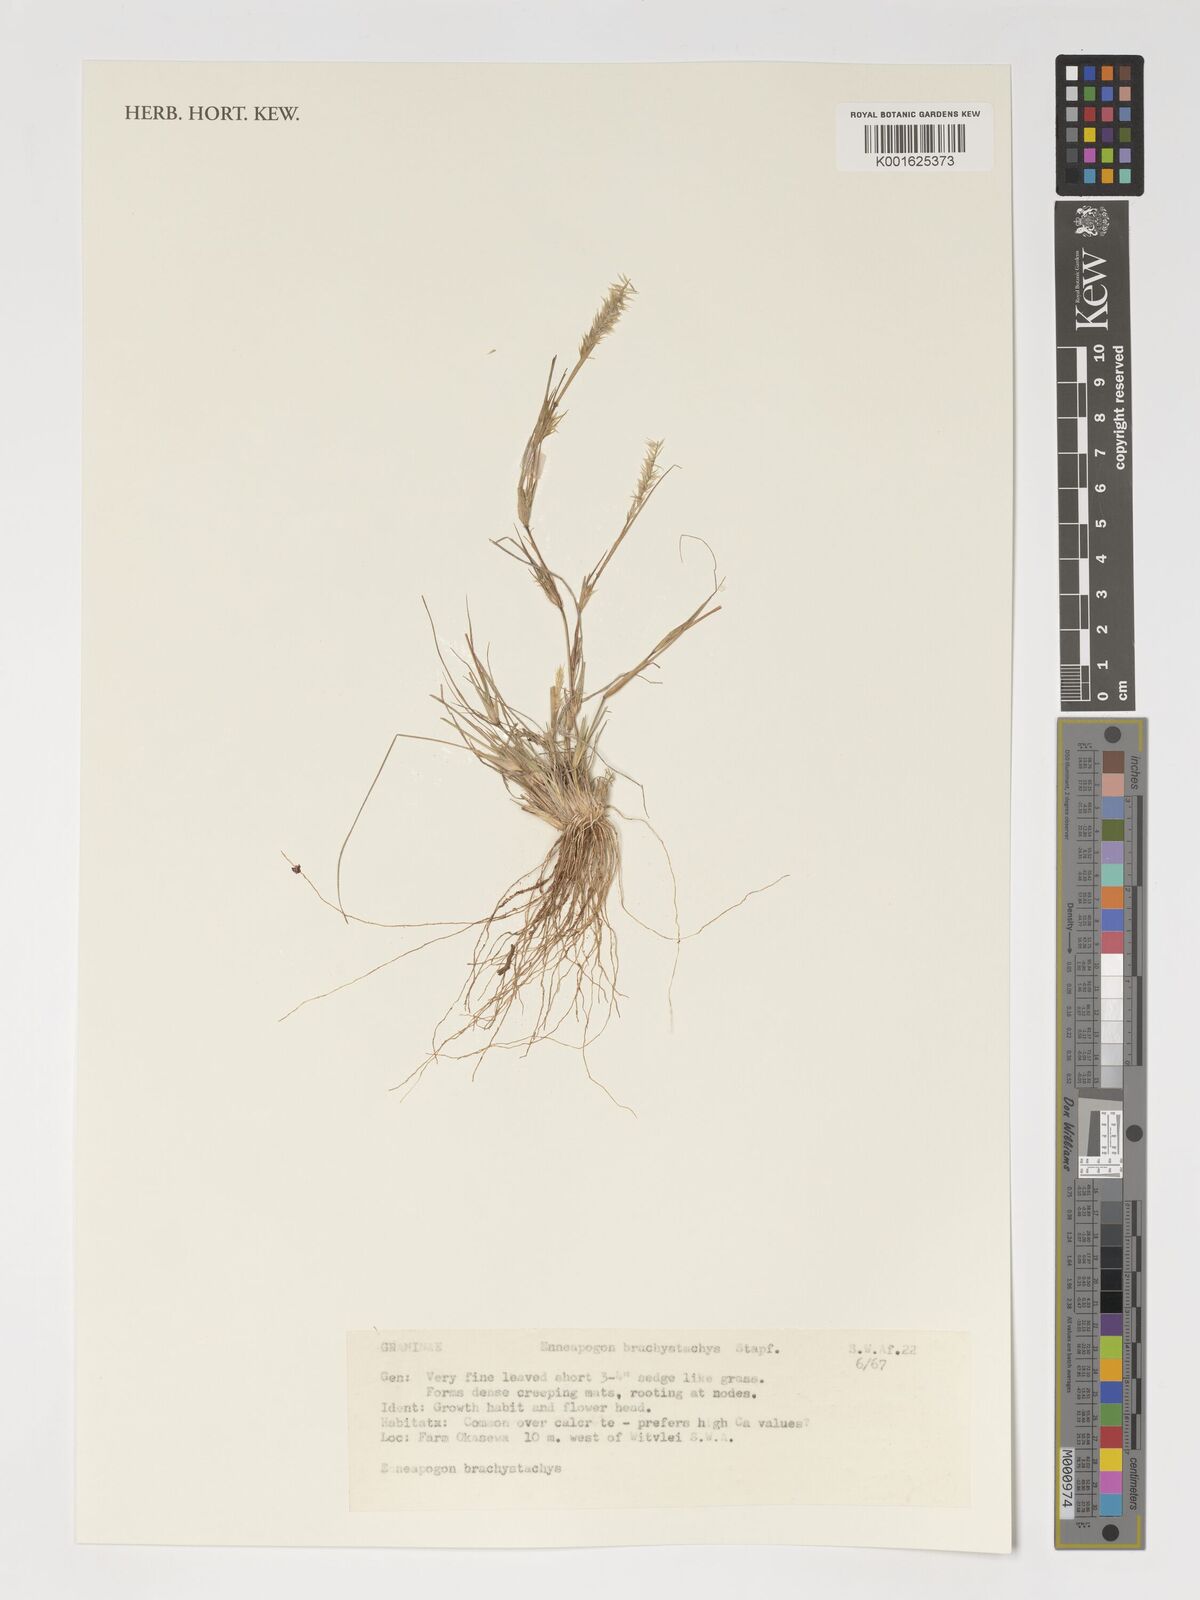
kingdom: Plantae
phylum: Tracheophyta
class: Liliopsida
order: Poales
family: Poaceae
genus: Enneapogon
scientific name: Enneapogon desvauxii
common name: Feather pappus grass
